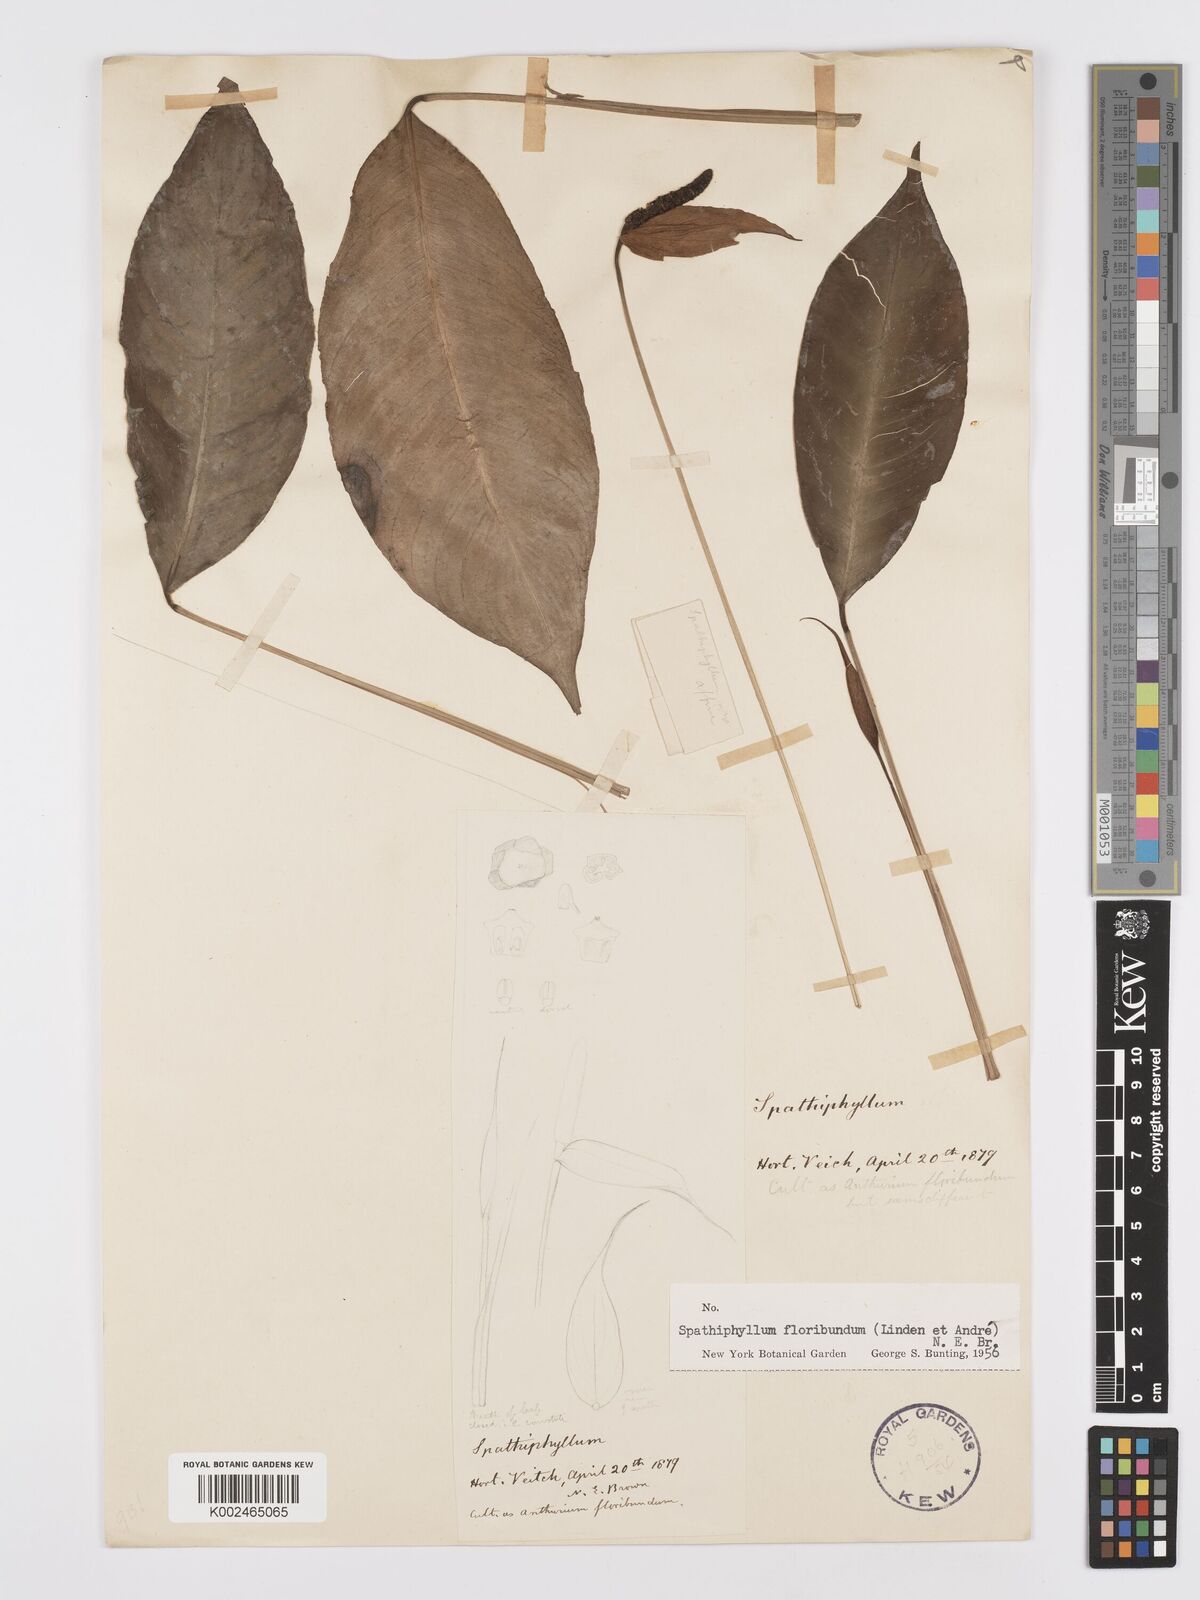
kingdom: Plantae
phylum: Tracheophyta
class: Liliopsida
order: Alismatales
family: Araceae
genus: Spathiphyllum
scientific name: Spathiphyllum floribundum
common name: Peace-lily
